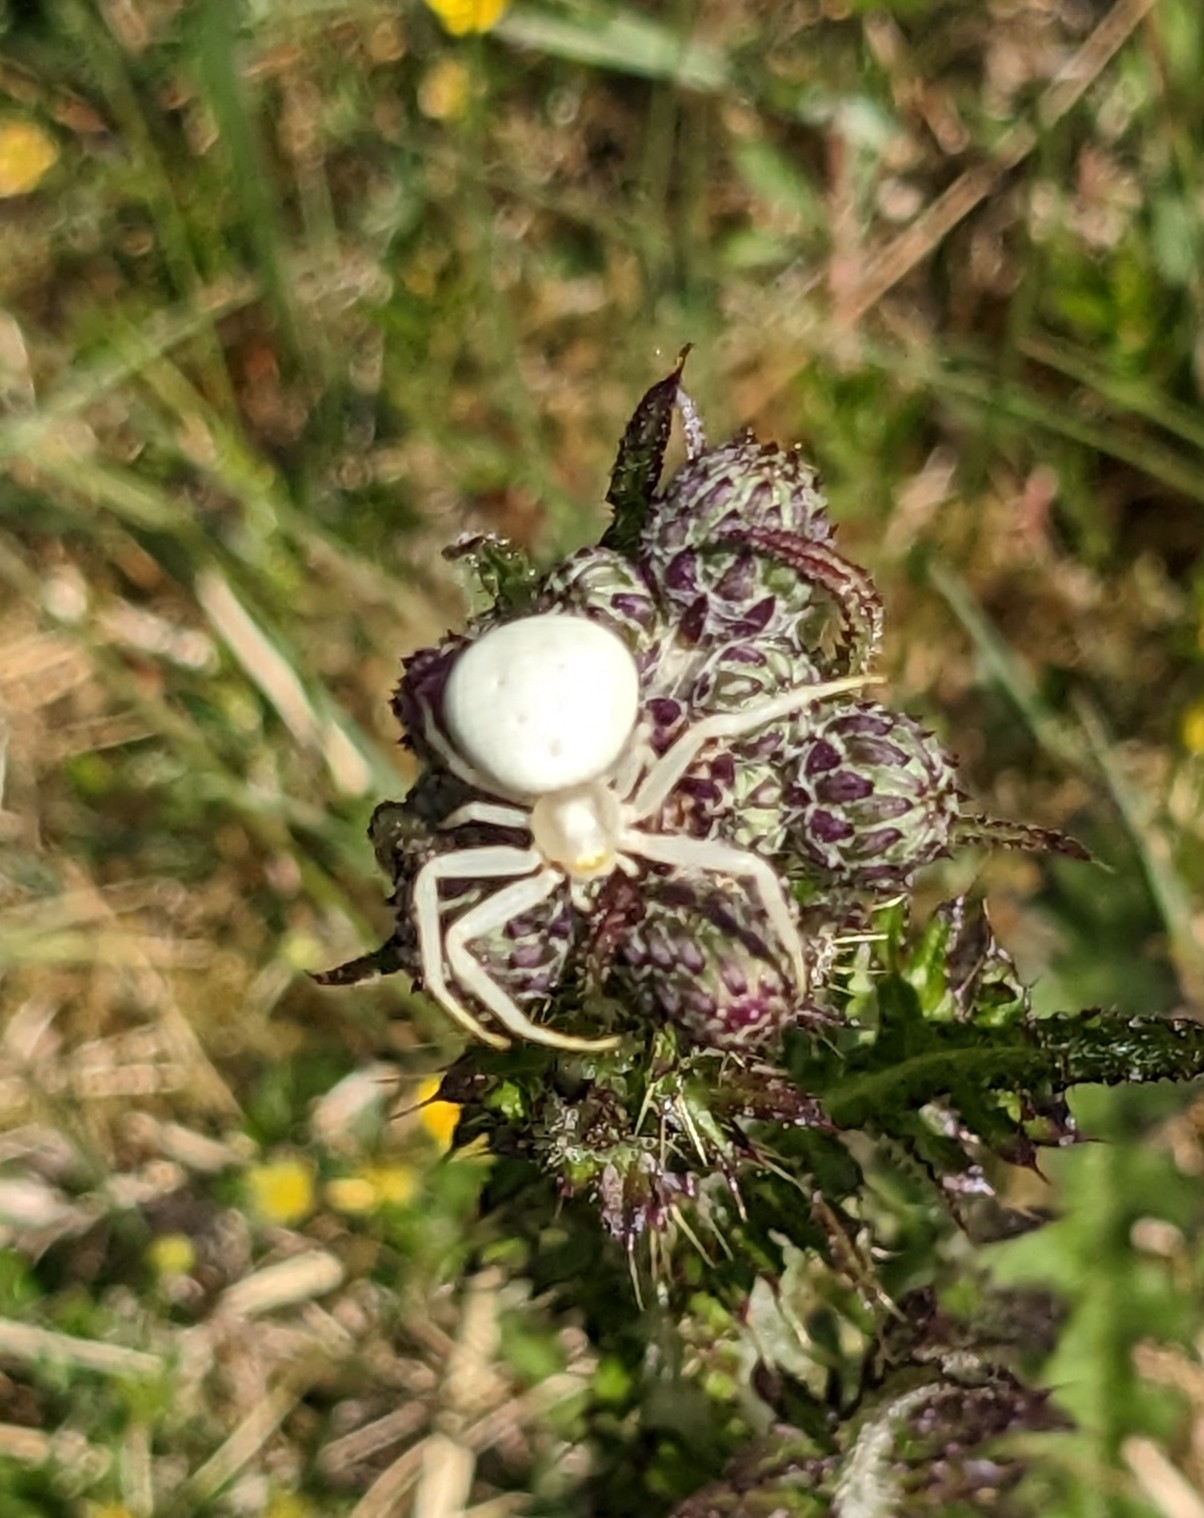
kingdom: Animalia
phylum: Arthropoda
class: Arachnida
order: Araneae
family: Thomisidae
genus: Misumena
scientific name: Misumena vatia
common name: Kamæleonedderkop
